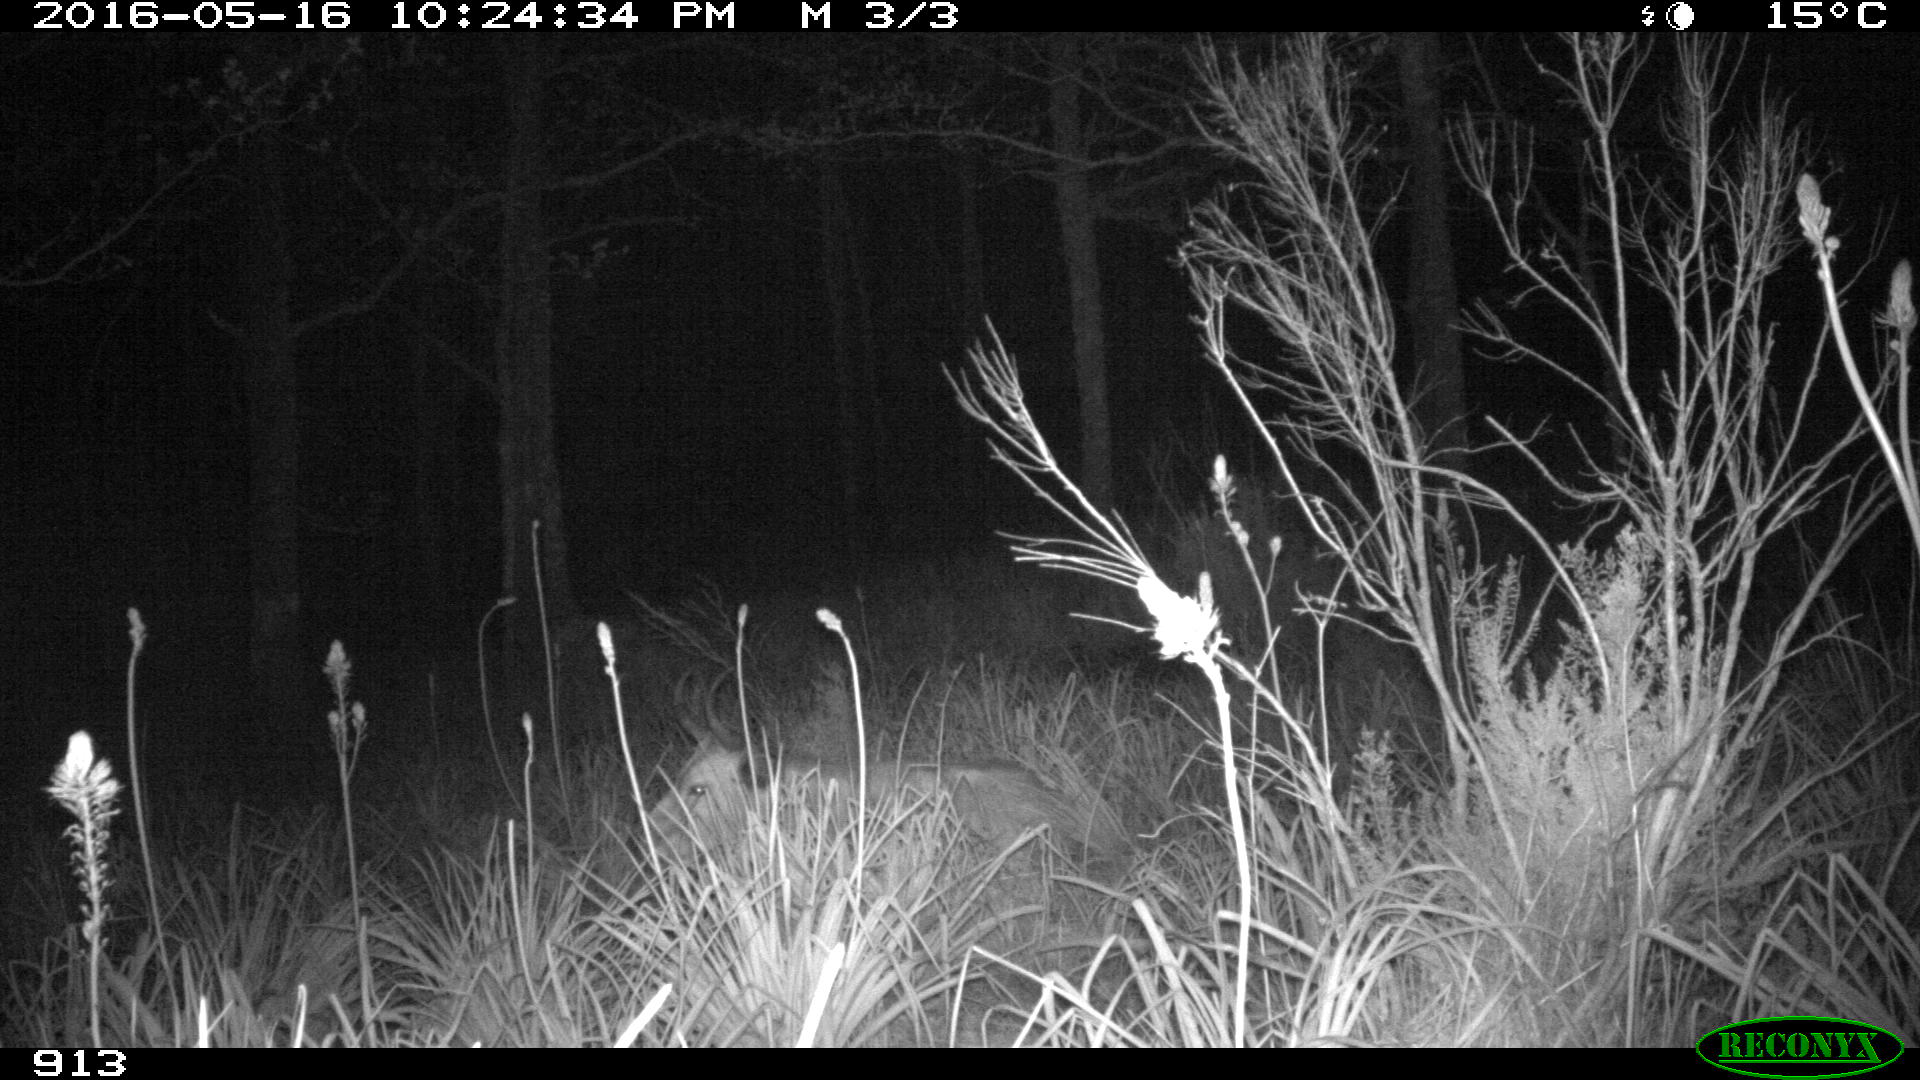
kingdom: Animalia
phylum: Chordata
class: Mammalia
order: Artiodactyla
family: Bovidae
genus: Bos
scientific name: Bos taurus
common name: Domesticated cattle
